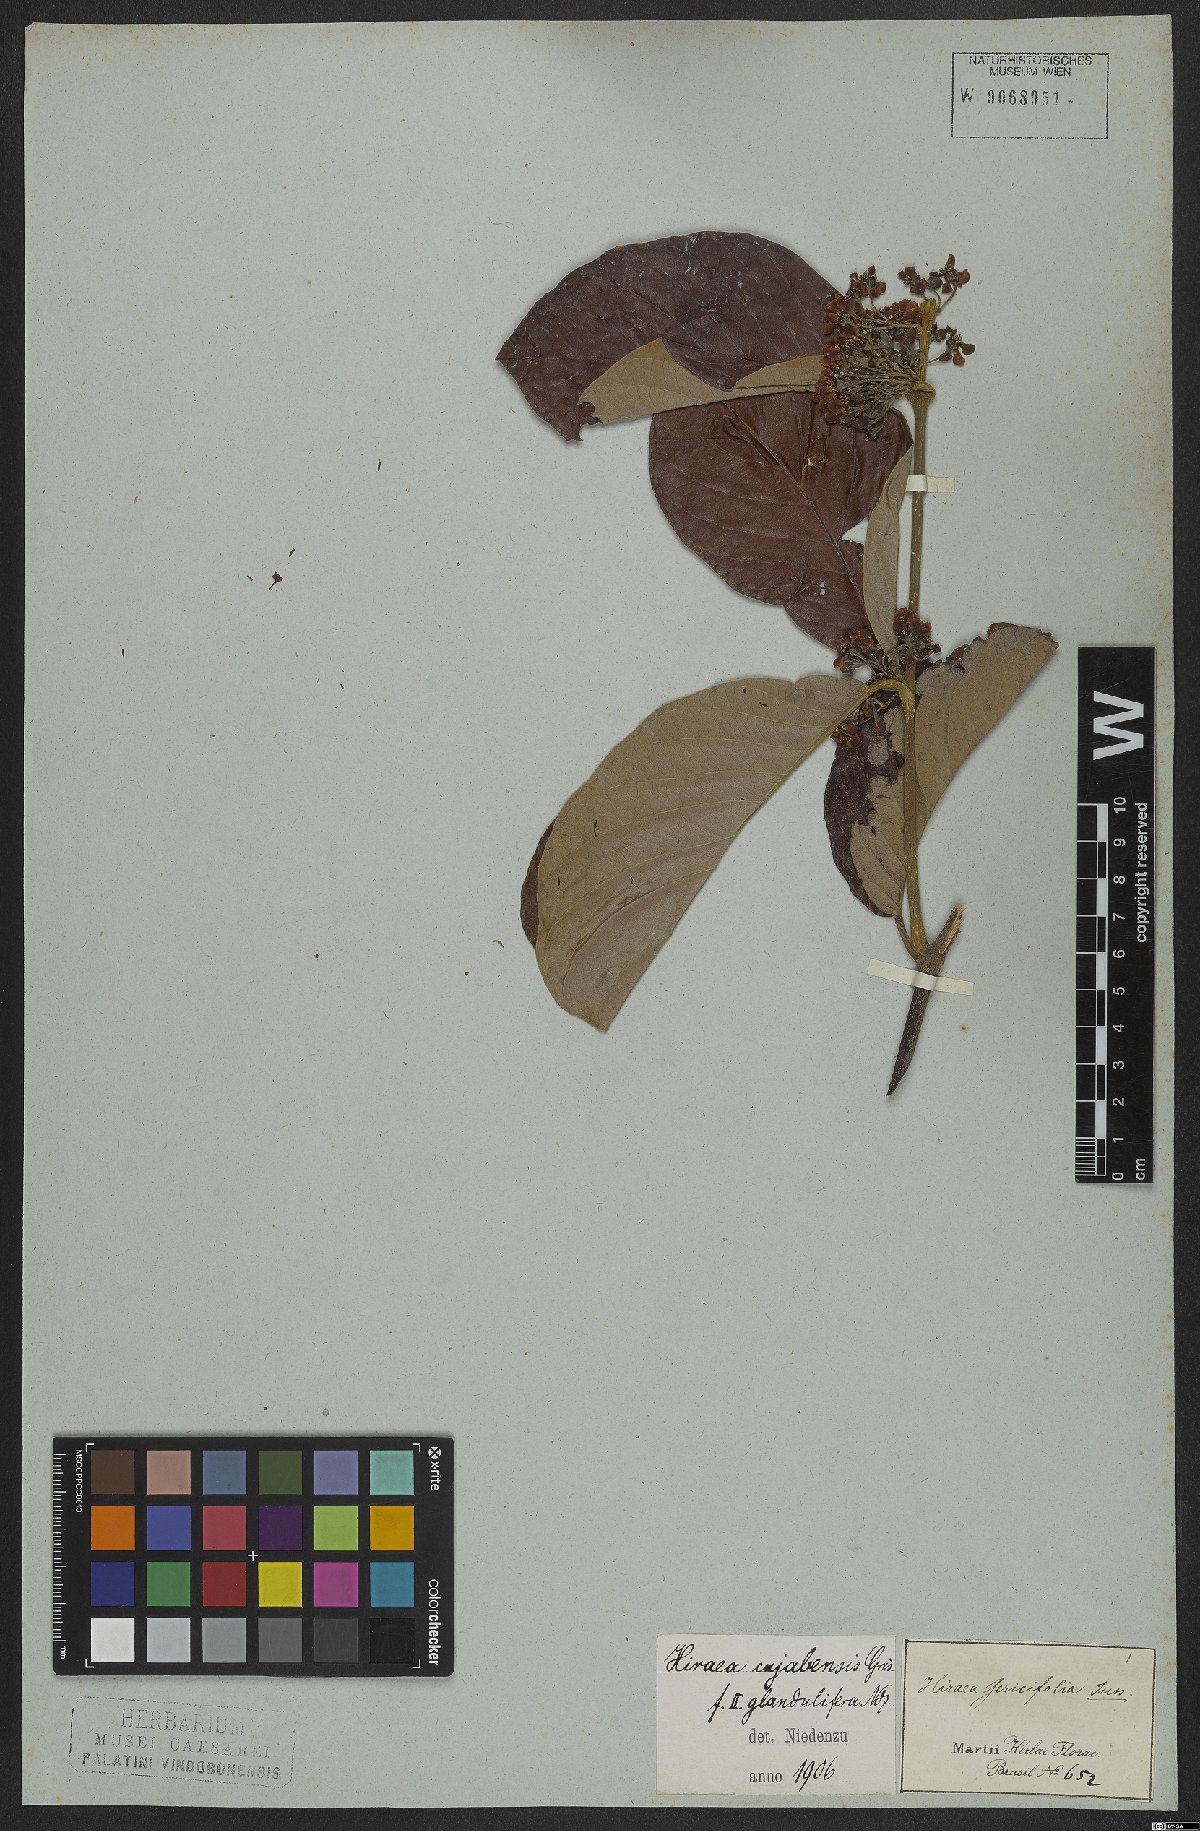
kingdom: Plantae
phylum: Tracheophyta
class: Magnoliopsida
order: Malpighiales
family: Malpighiaceae
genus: Hiraea
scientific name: Hiraea cuiabensis
